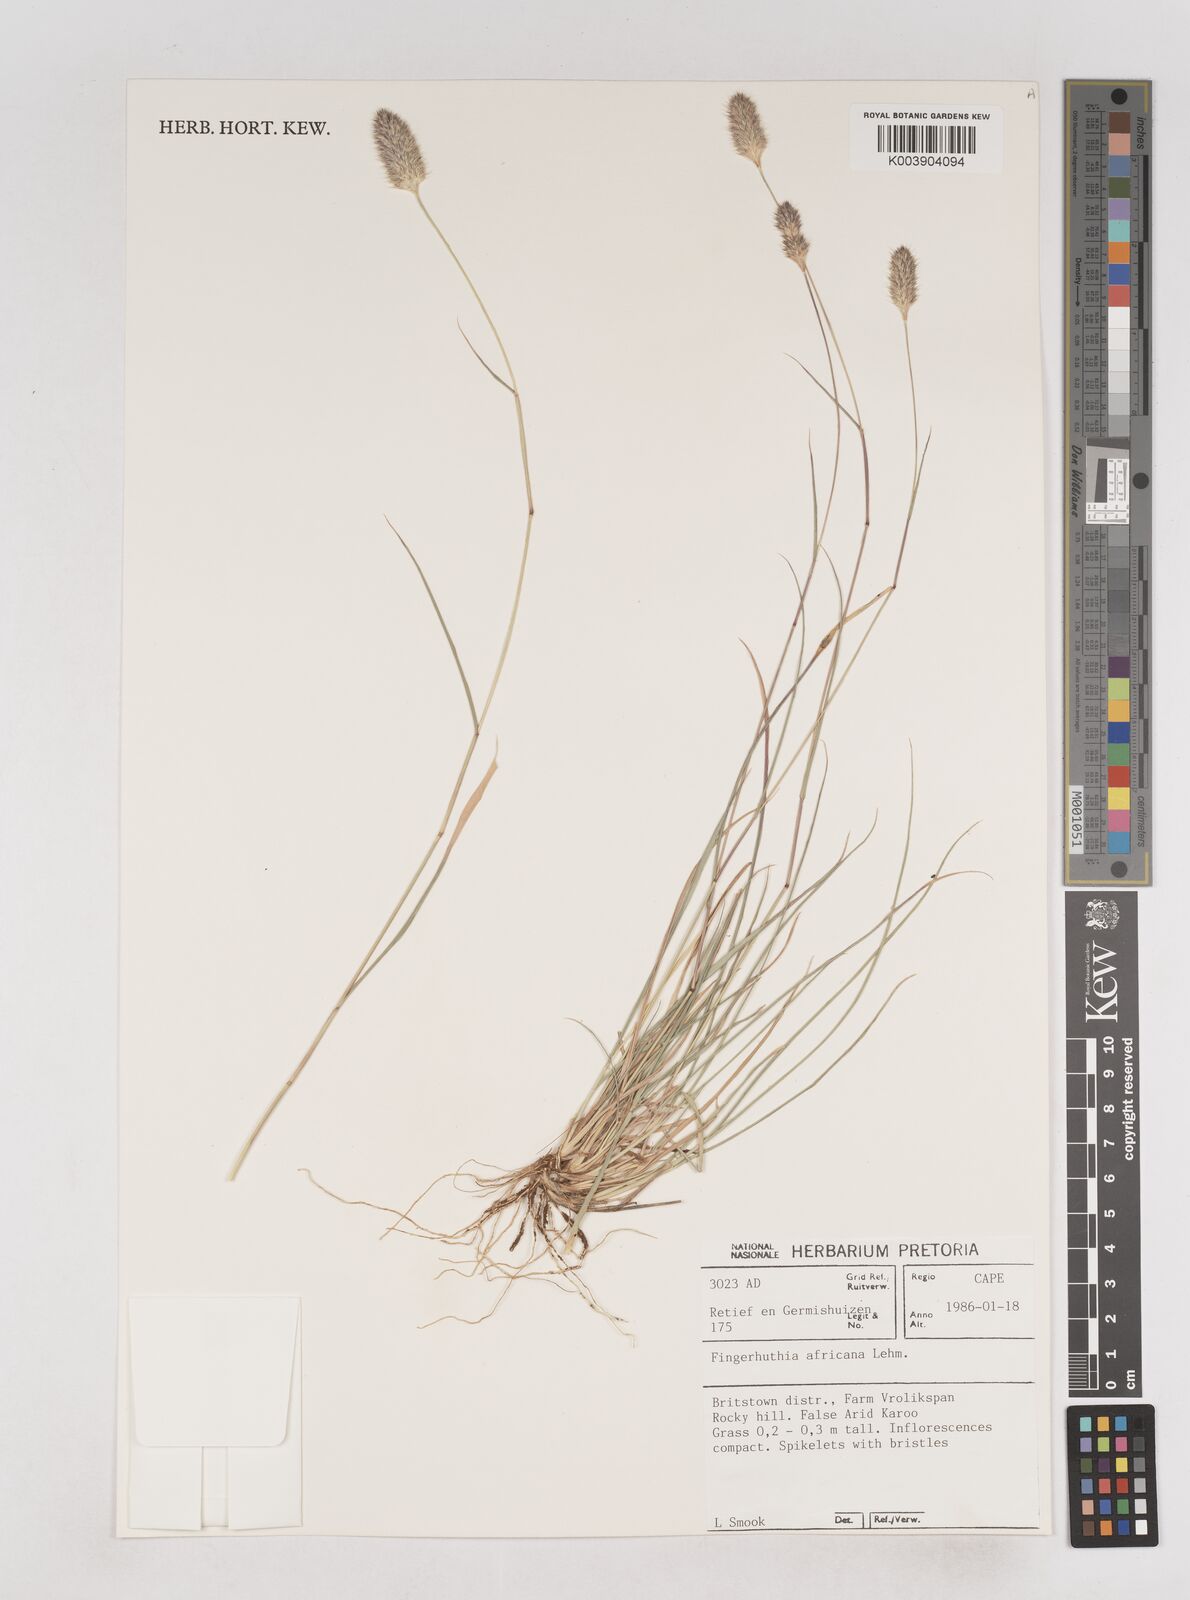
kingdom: Plantae
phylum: Tracheophyta
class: Liliopsida
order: Poales
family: Poaceae
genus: Fingerhuthia
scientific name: Fingerhuthia africana
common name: Zulu fescue
